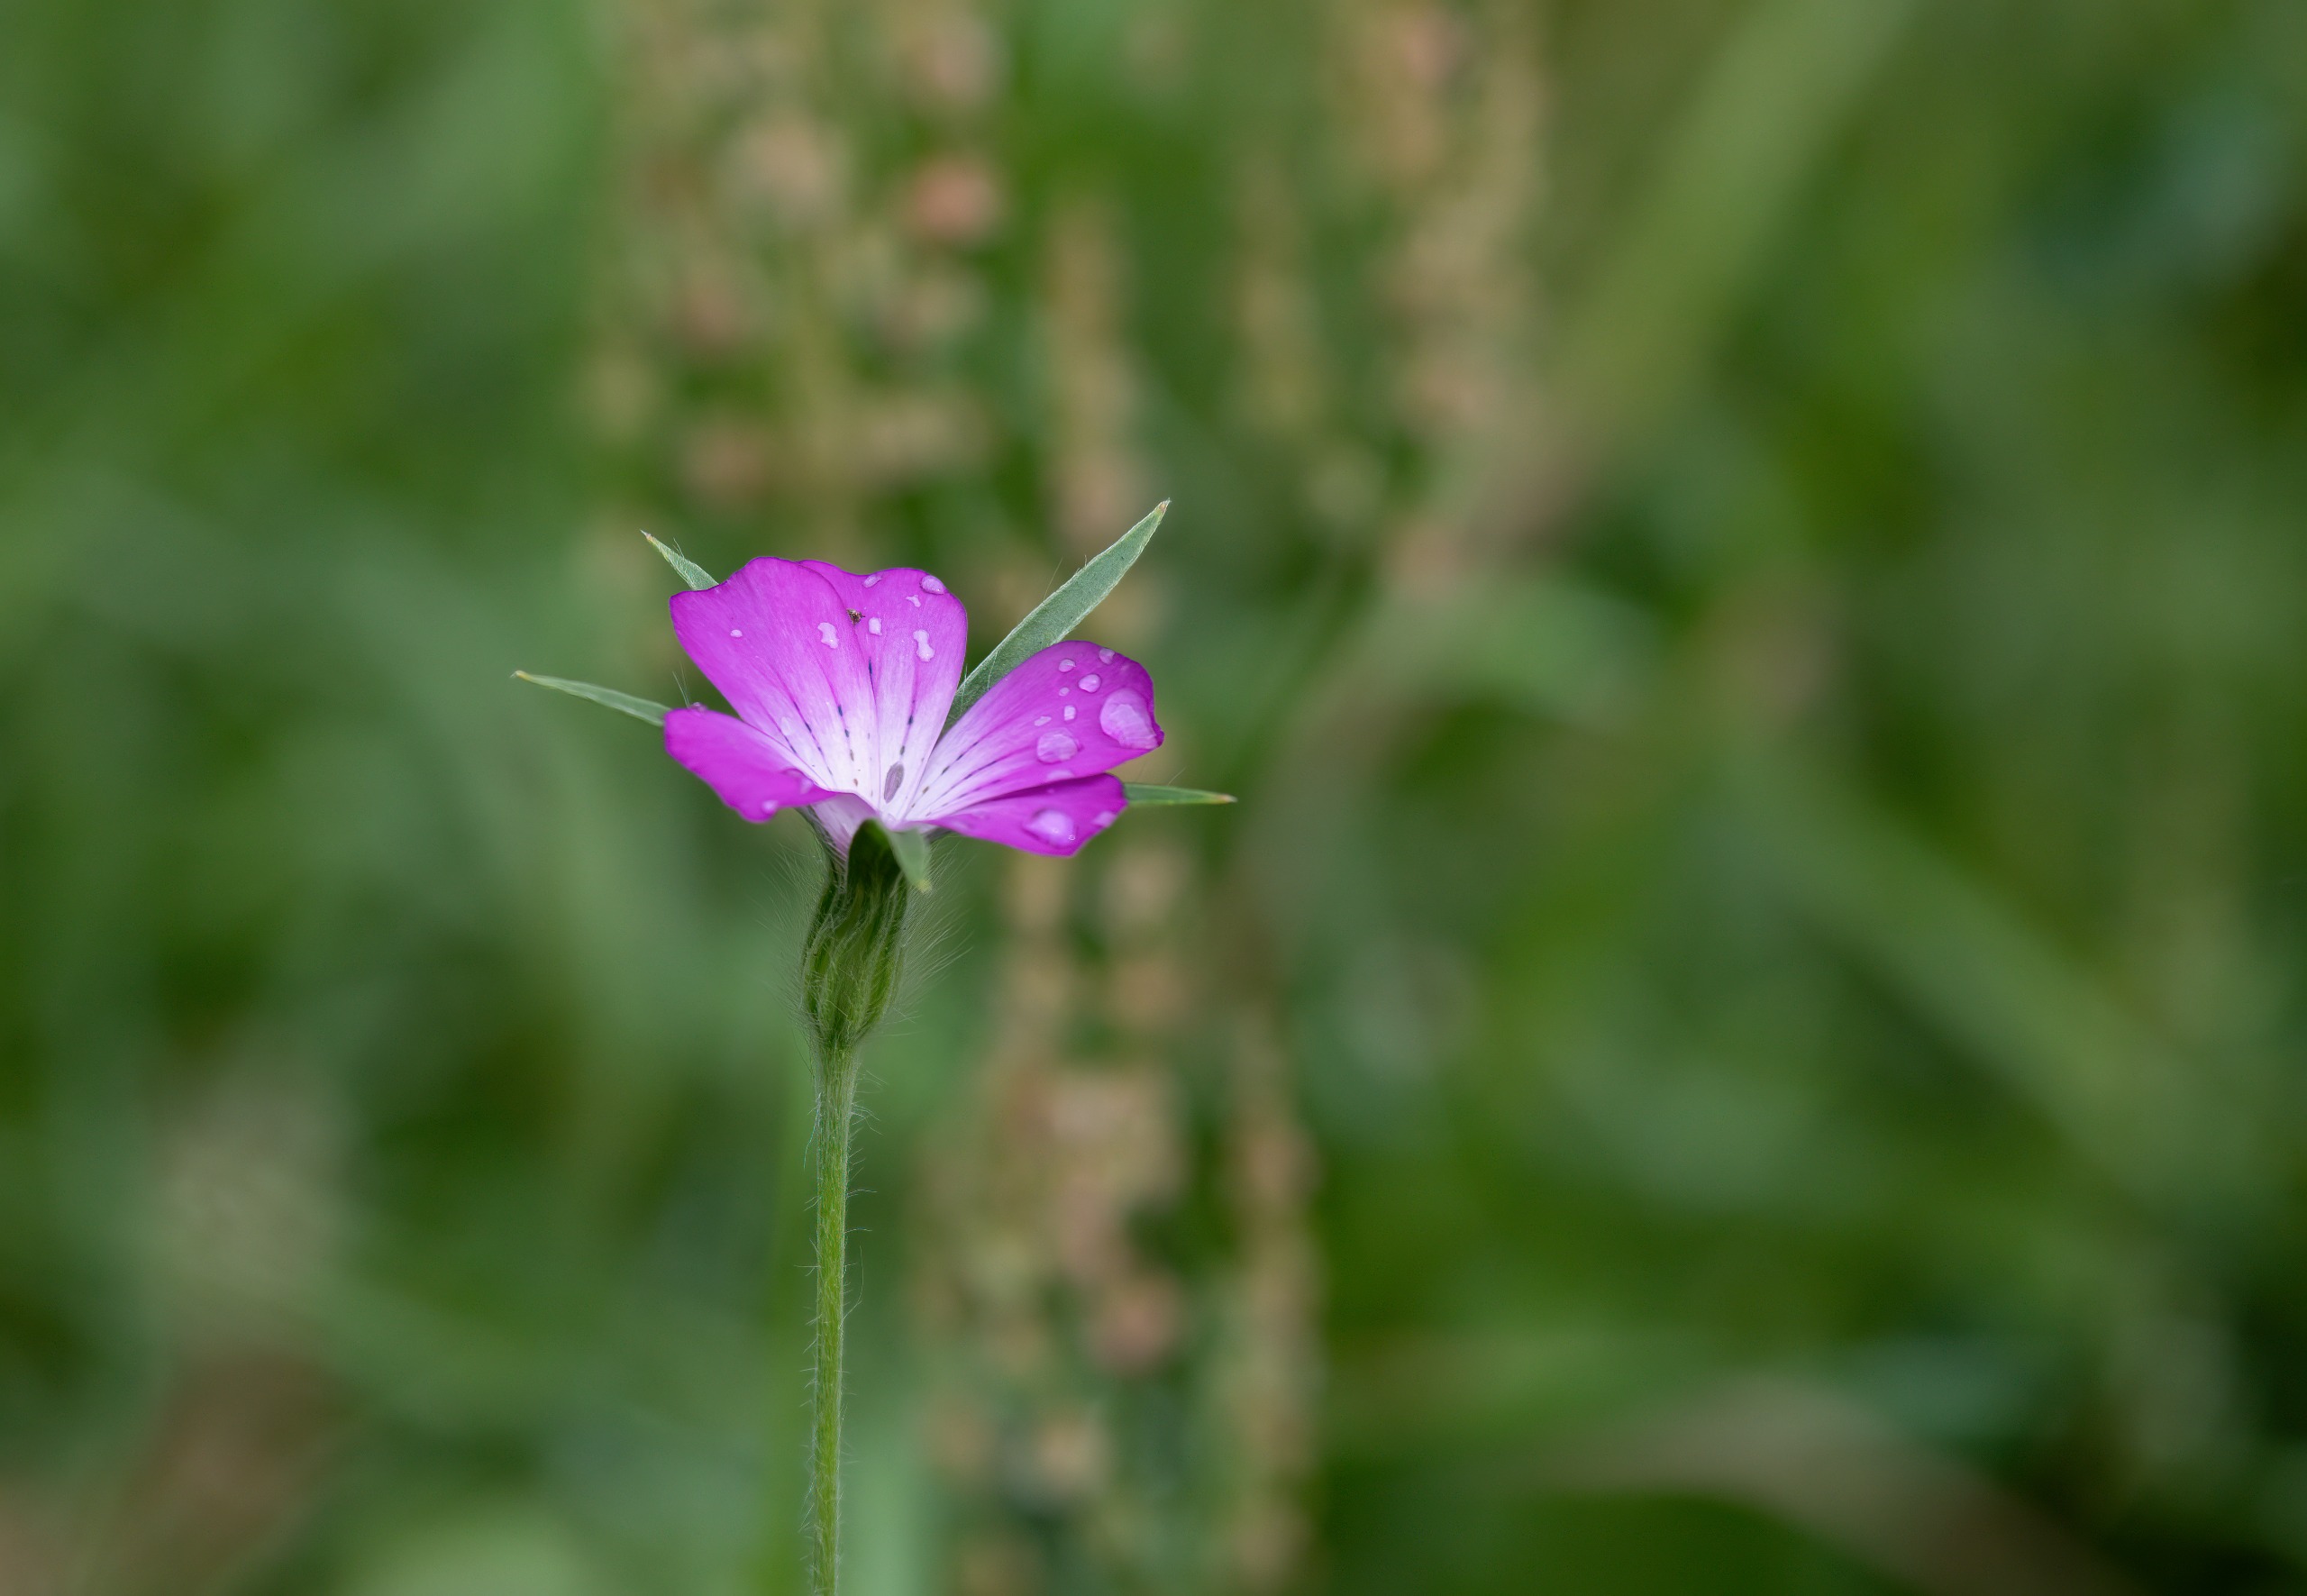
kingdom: Plantae
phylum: Tracheophyta
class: Magnoliopsida
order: Caryophyllales
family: Caryophyllaceae
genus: Agrostemma
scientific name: Agrostemma githago
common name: Klinte
